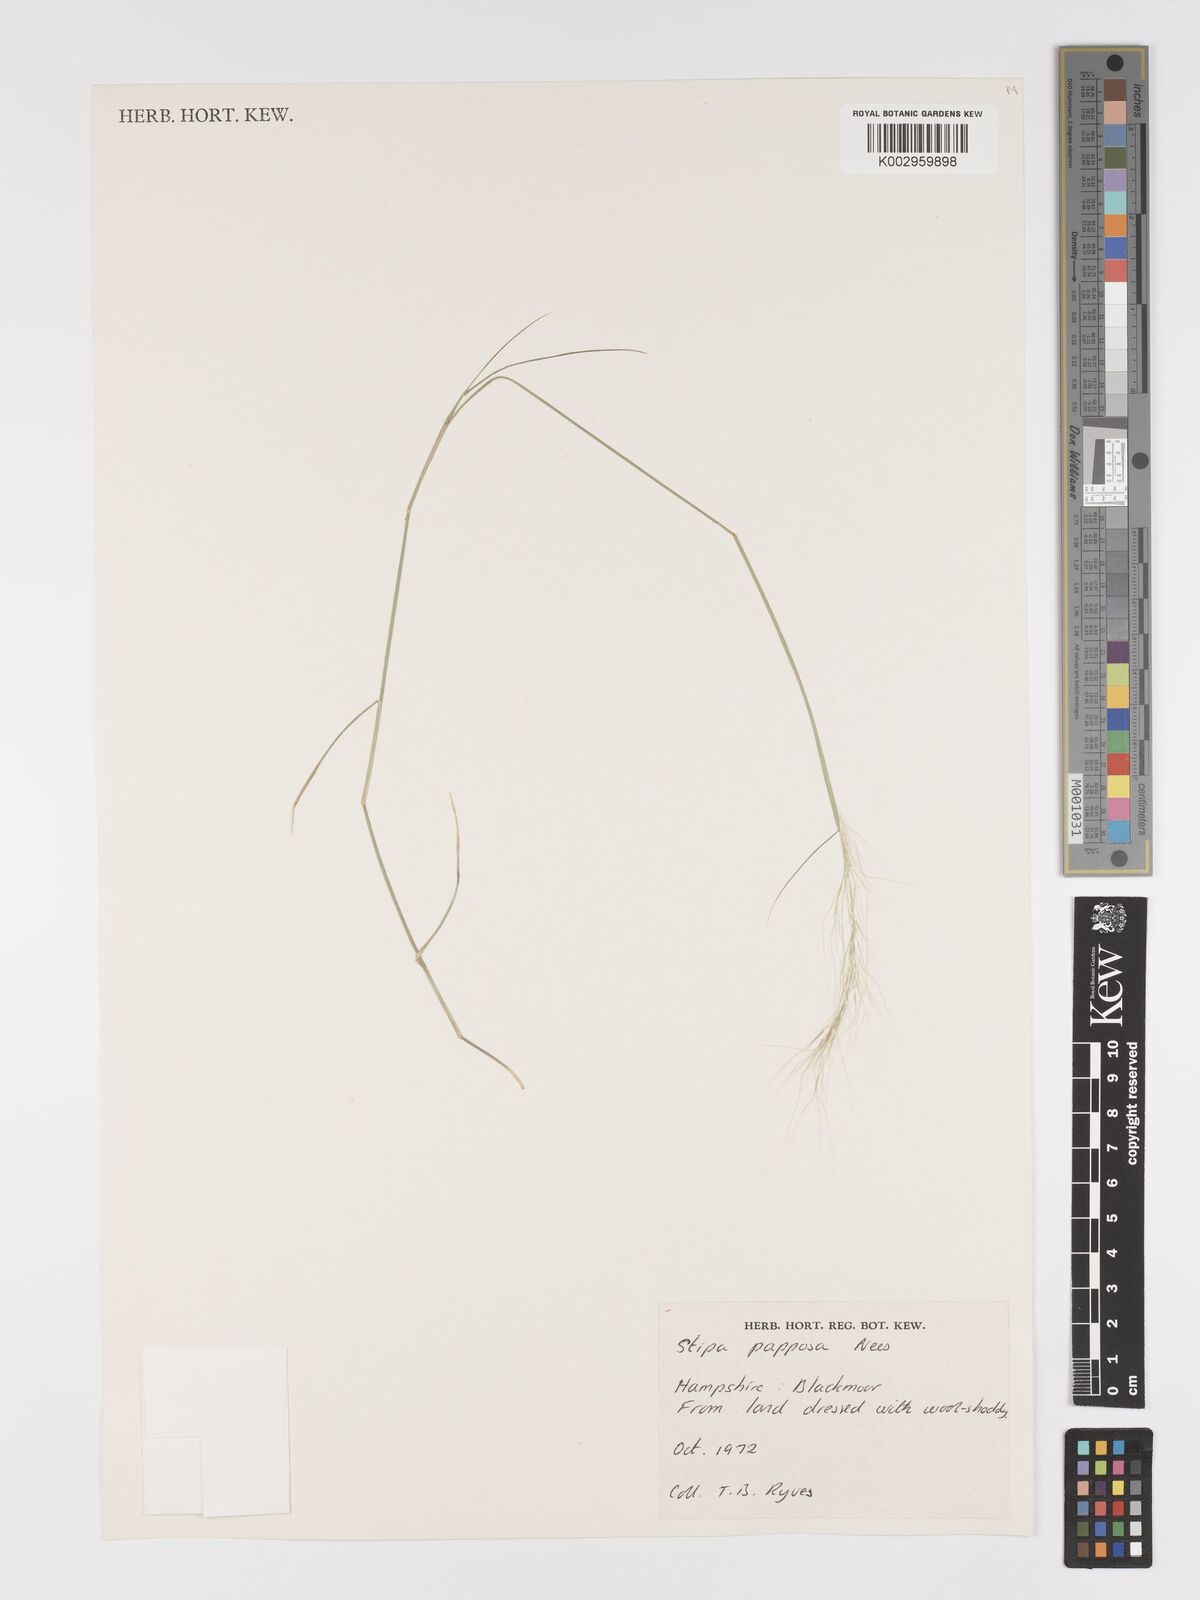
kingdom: Plantae
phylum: Tracheophyta
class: Liliopsida
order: Poales
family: Poaceae
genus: Jarava
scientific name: Jarava plumosa
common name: South american rice grass
